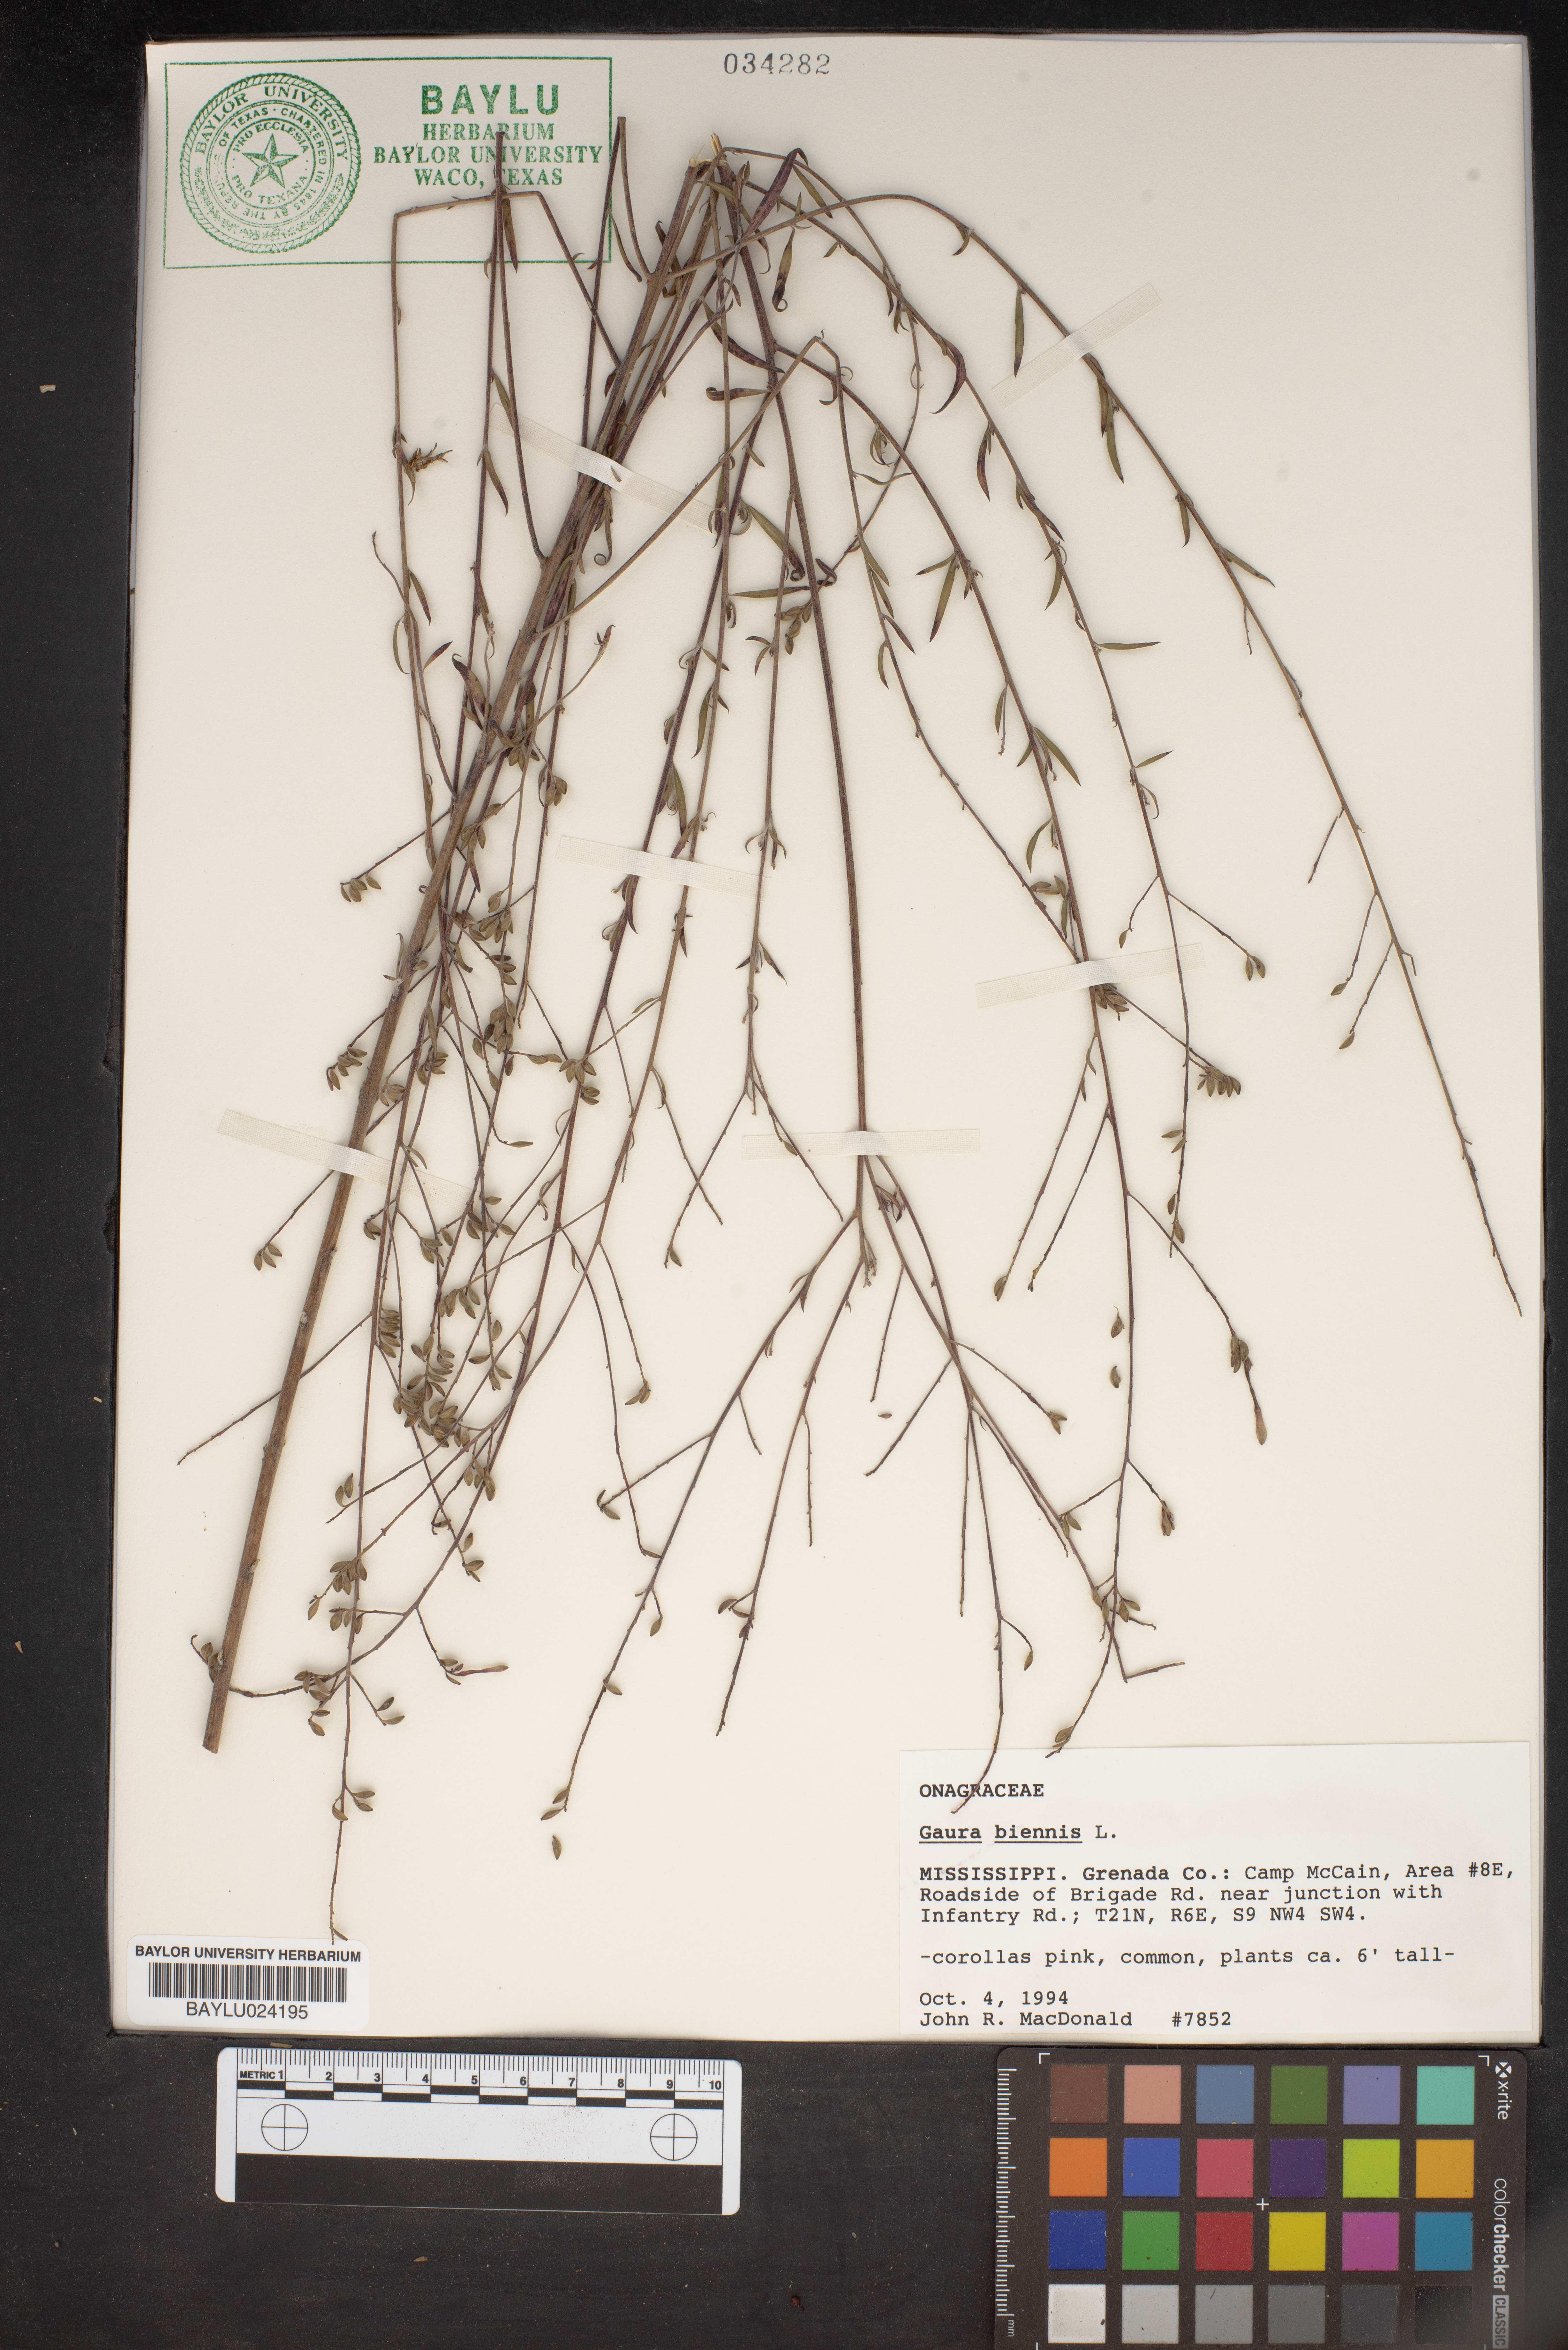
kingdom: Plantae
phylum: Tracheophyta
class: Magnoliopsida
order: Myrtales
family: Onagraceae
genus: Oenothera
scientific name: Oenothera gaura
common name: Biennial beeblossom
